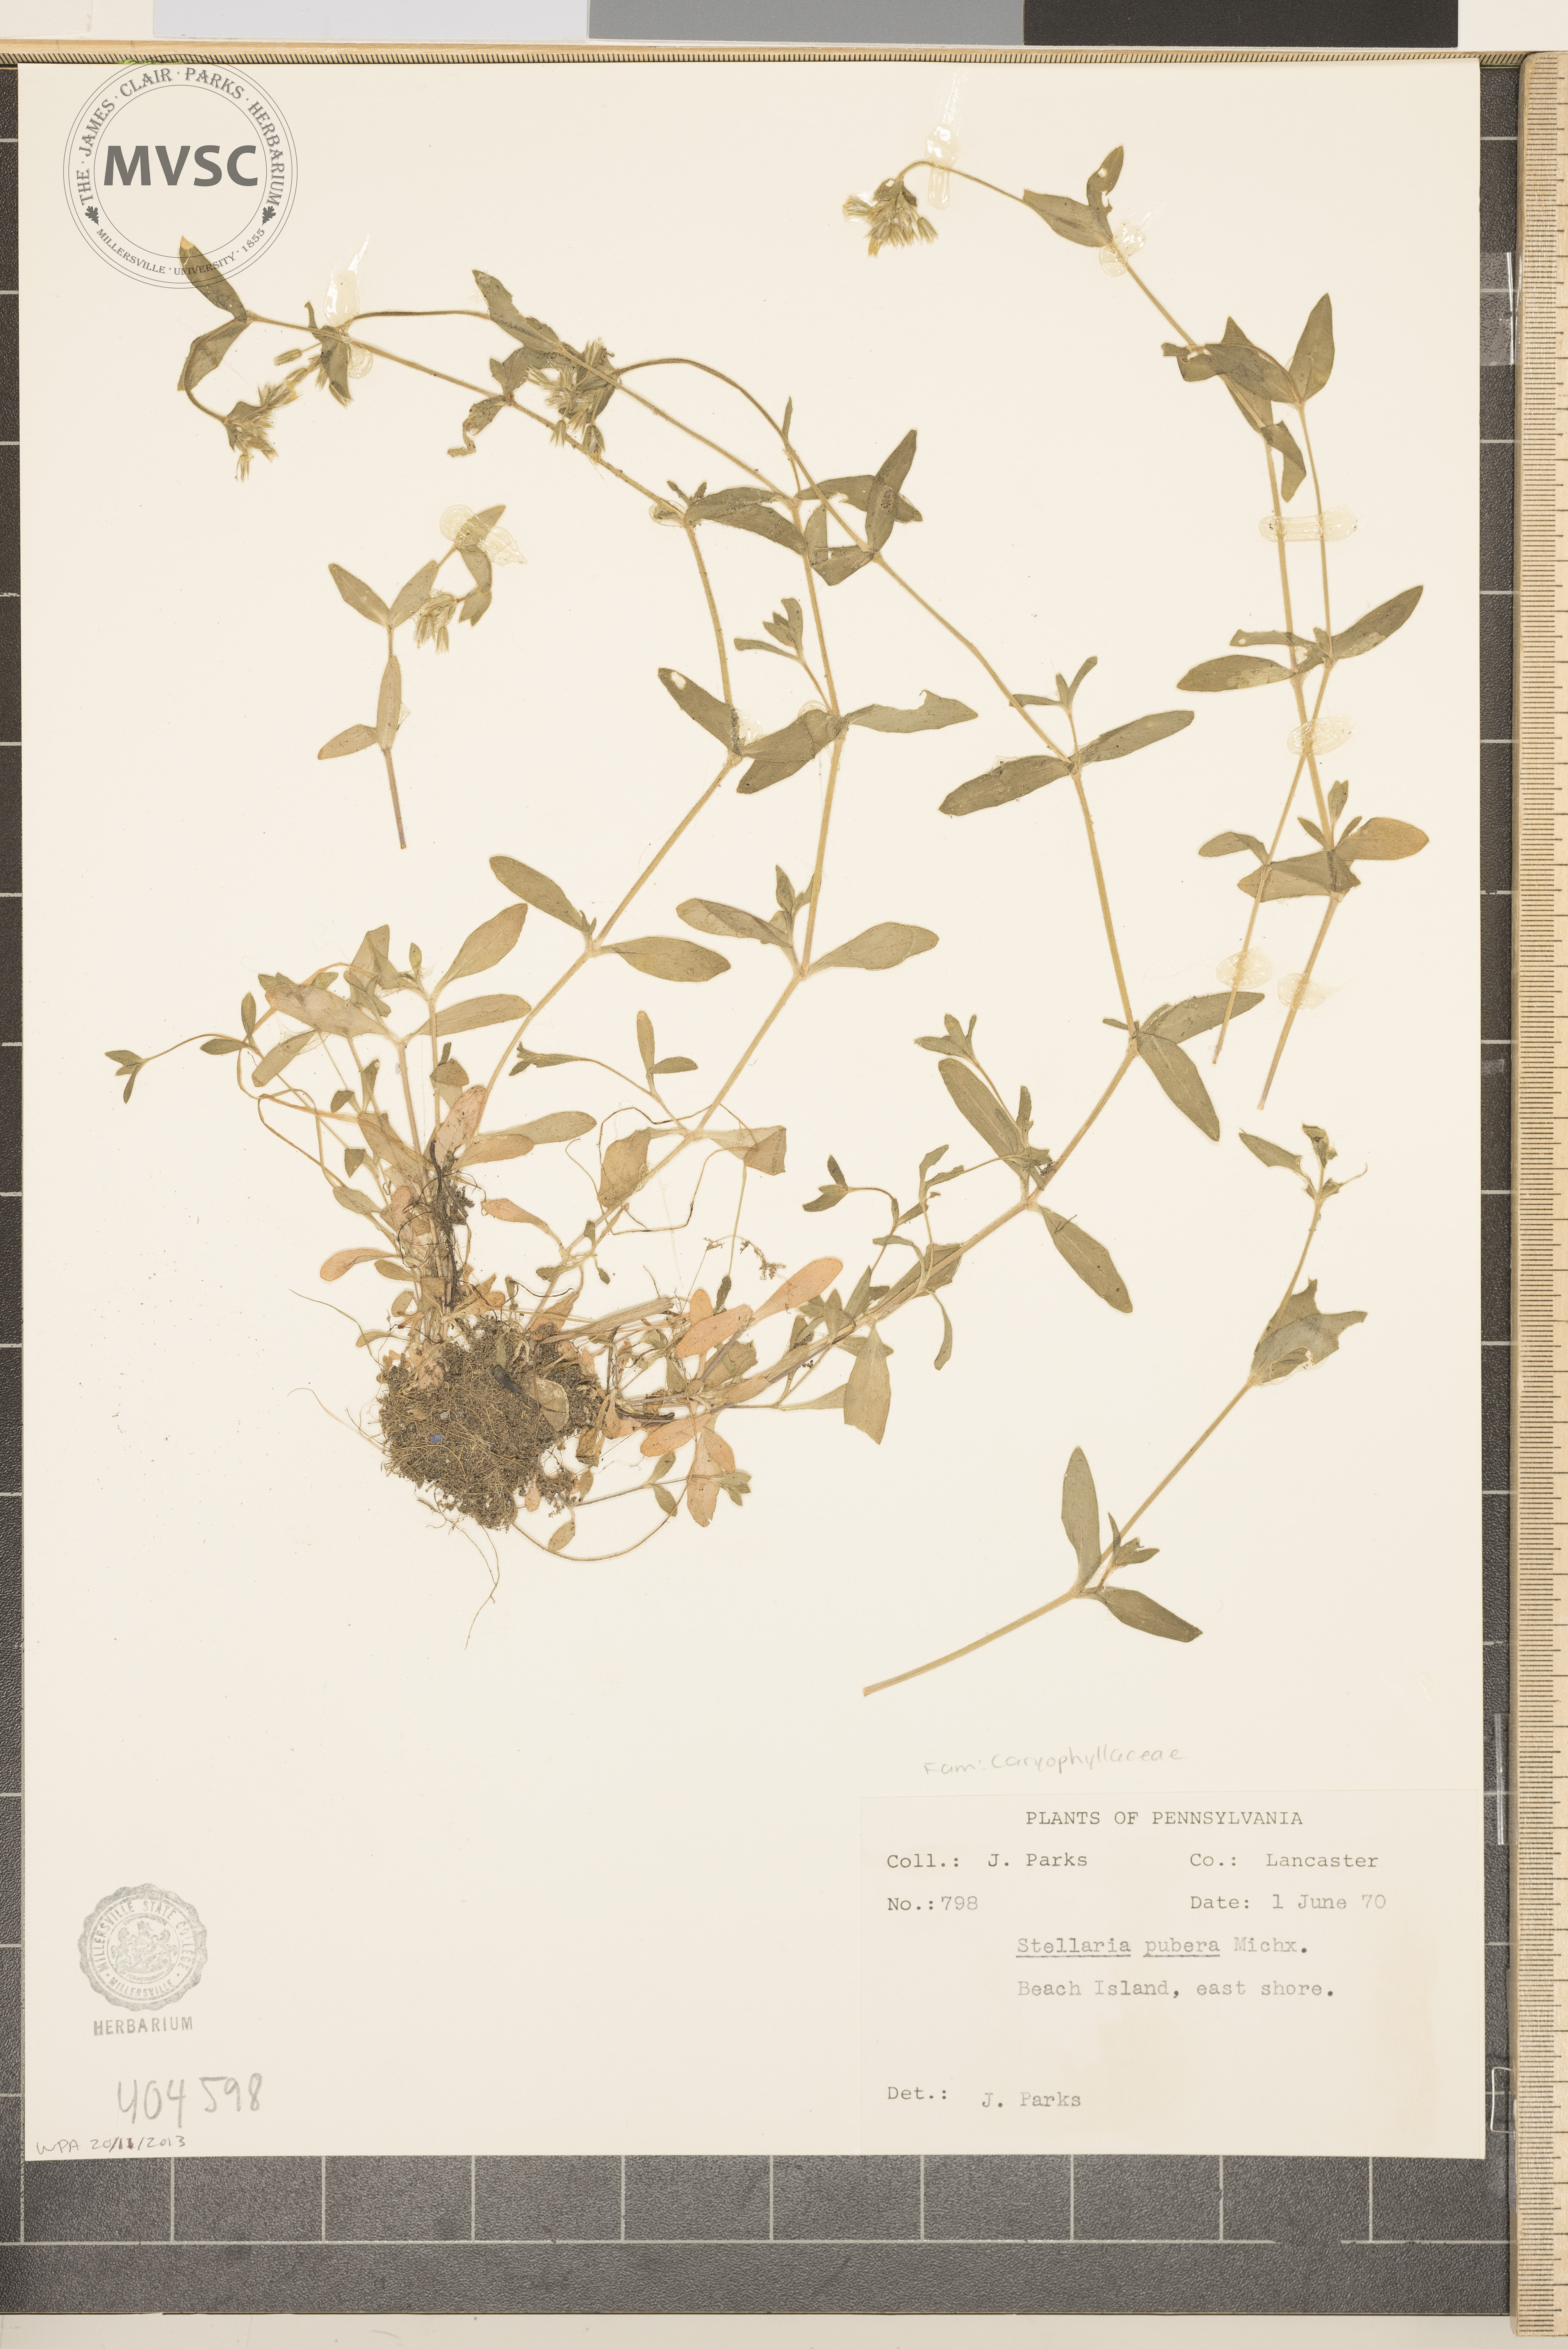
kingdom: Plantae
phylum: Tracheophyta
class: Magnoliopsida
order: Caryophyllales
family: Caryophyllaceae
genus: Stellaria
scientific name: Stellaria pubera
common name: Star chickweed
